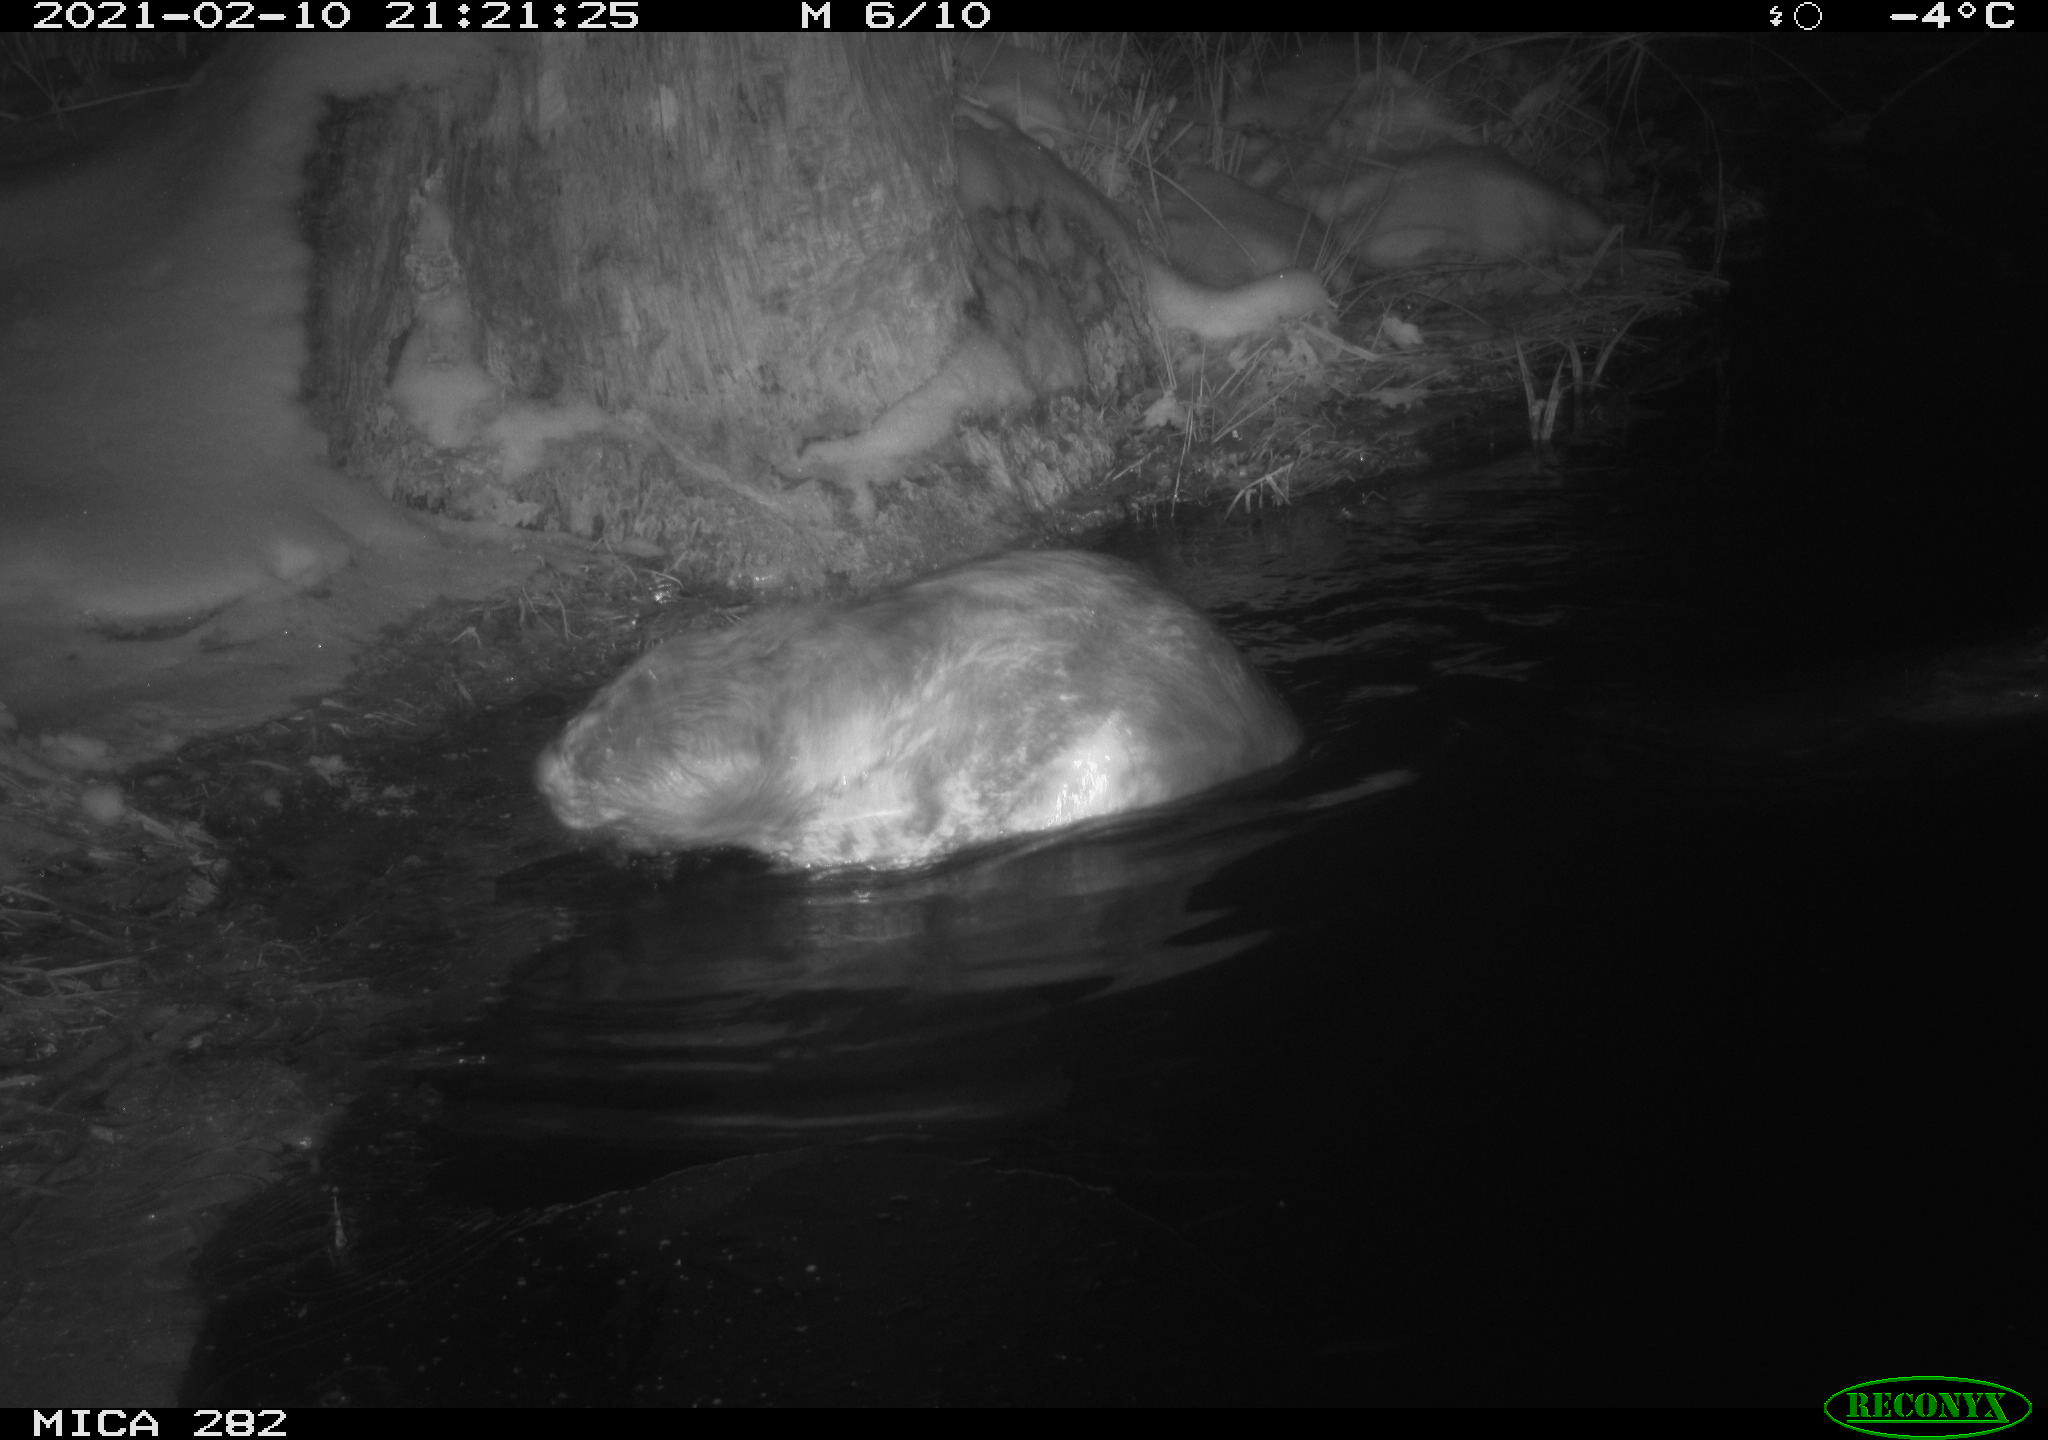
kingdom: Animalia
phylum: Chordata
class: Mammalia
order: Rodentia
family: Castoridae
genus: Castor
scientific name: Castor fiber
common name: Eurasian beaver
